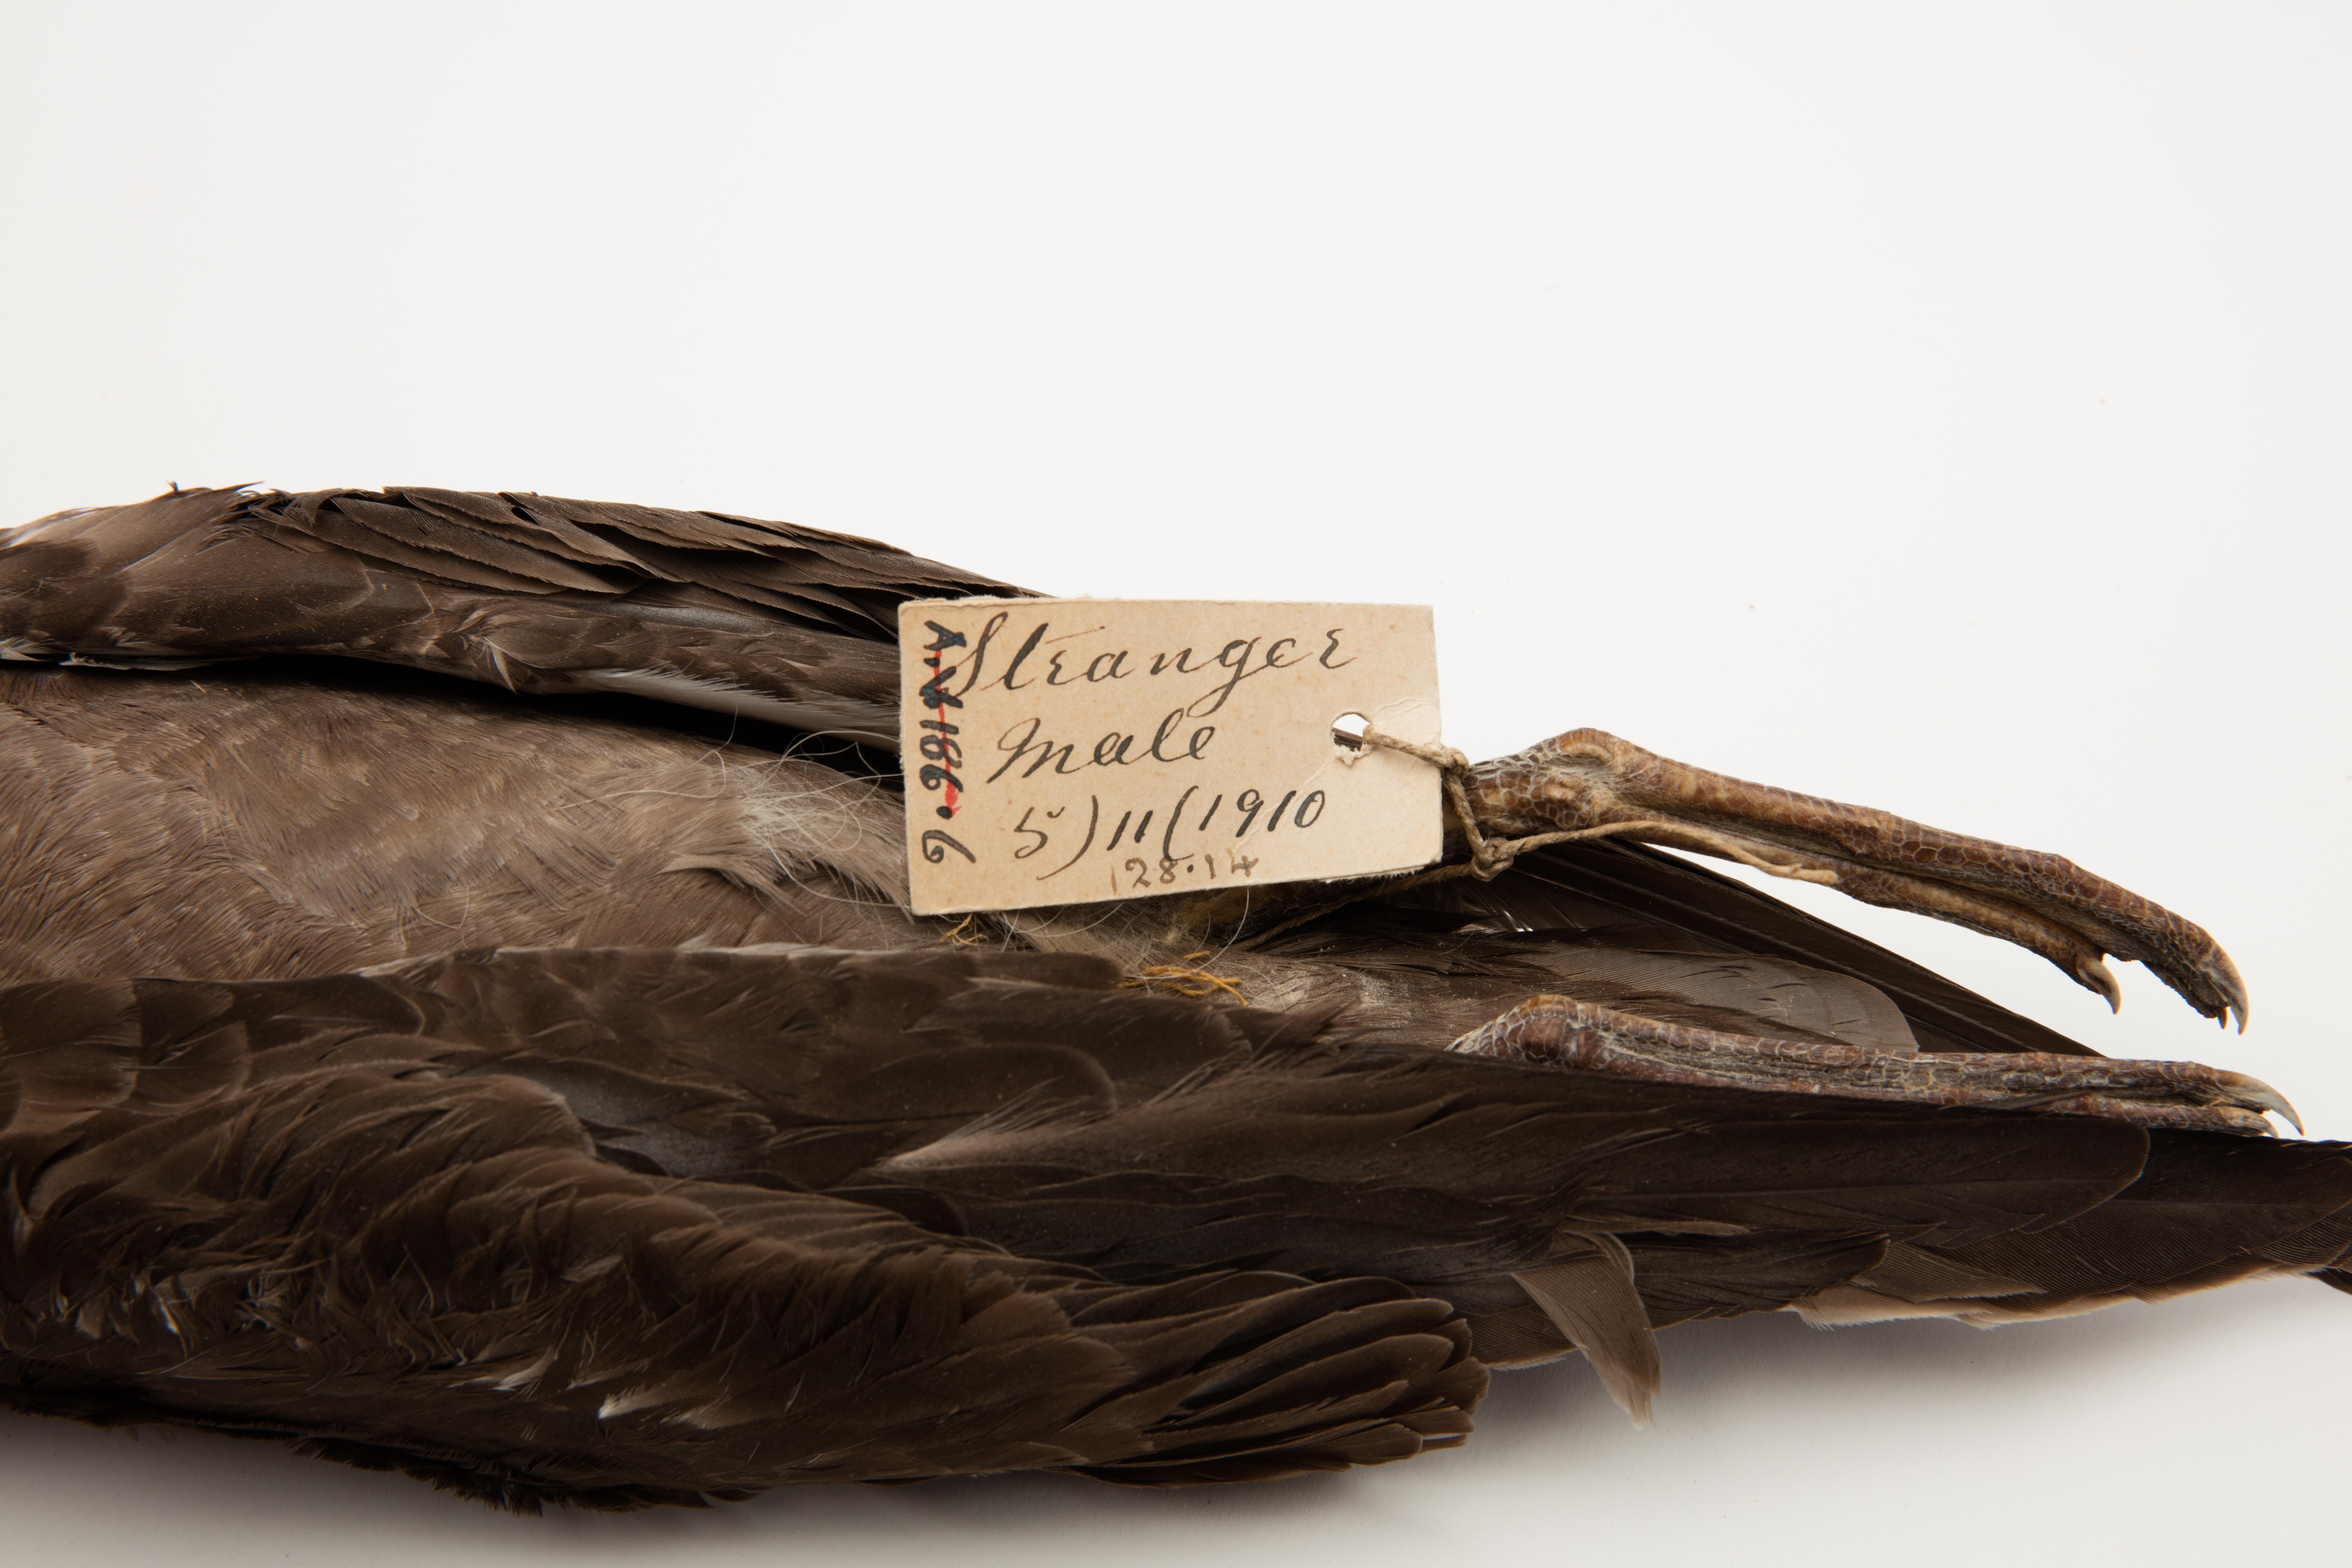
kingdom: Animalia
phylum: Chordata
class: Aves
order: Procellariiformes
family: Procellariidae
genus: Puffinus
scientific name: Puffinus griseus
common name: Sooty shearwater
